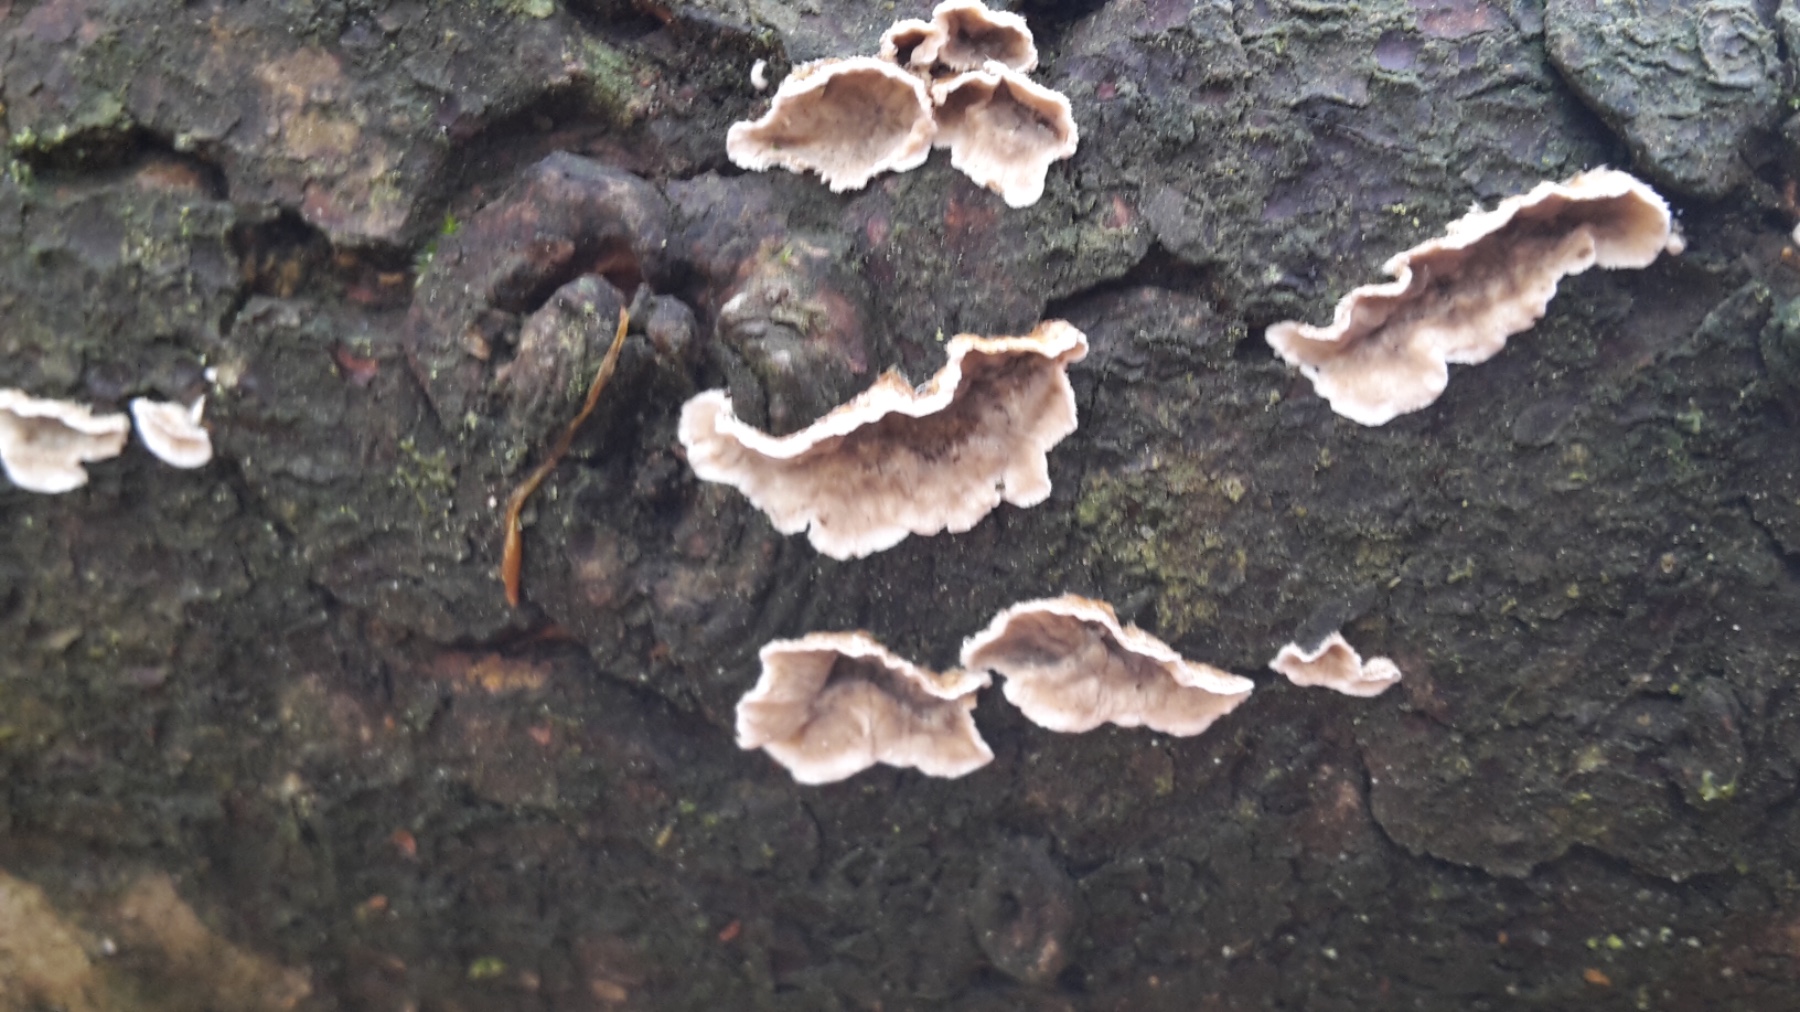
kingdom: Fungi
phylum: Basidiomycota
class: Agaricomycetes
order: Russulales
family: Stereaceae
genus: Stereum
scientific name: Stereum sanguinolentum
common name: blødende lædersvamp
